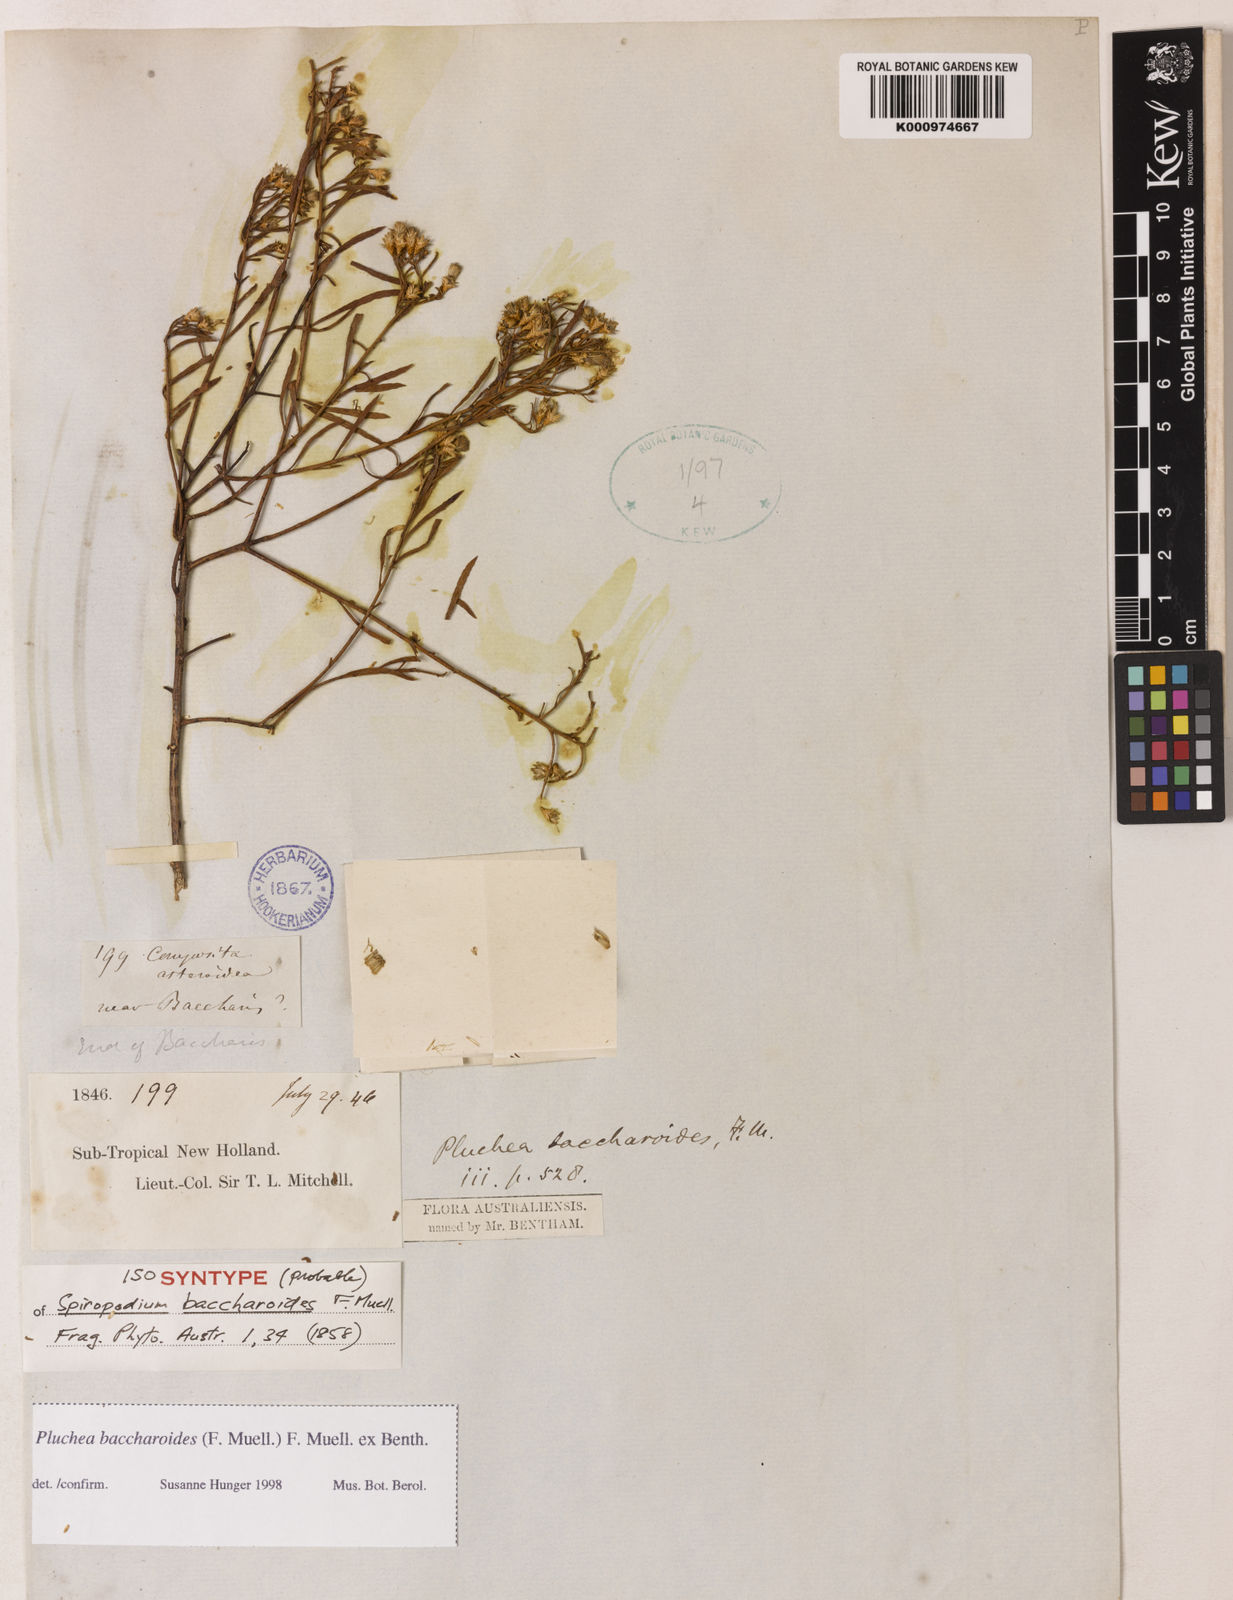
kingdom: Plantae
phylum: Tracheophyta
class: Magnoliopsida
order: Asterales
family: Asteraceae
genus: Pluchea
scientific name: Pluchea baccharioides
